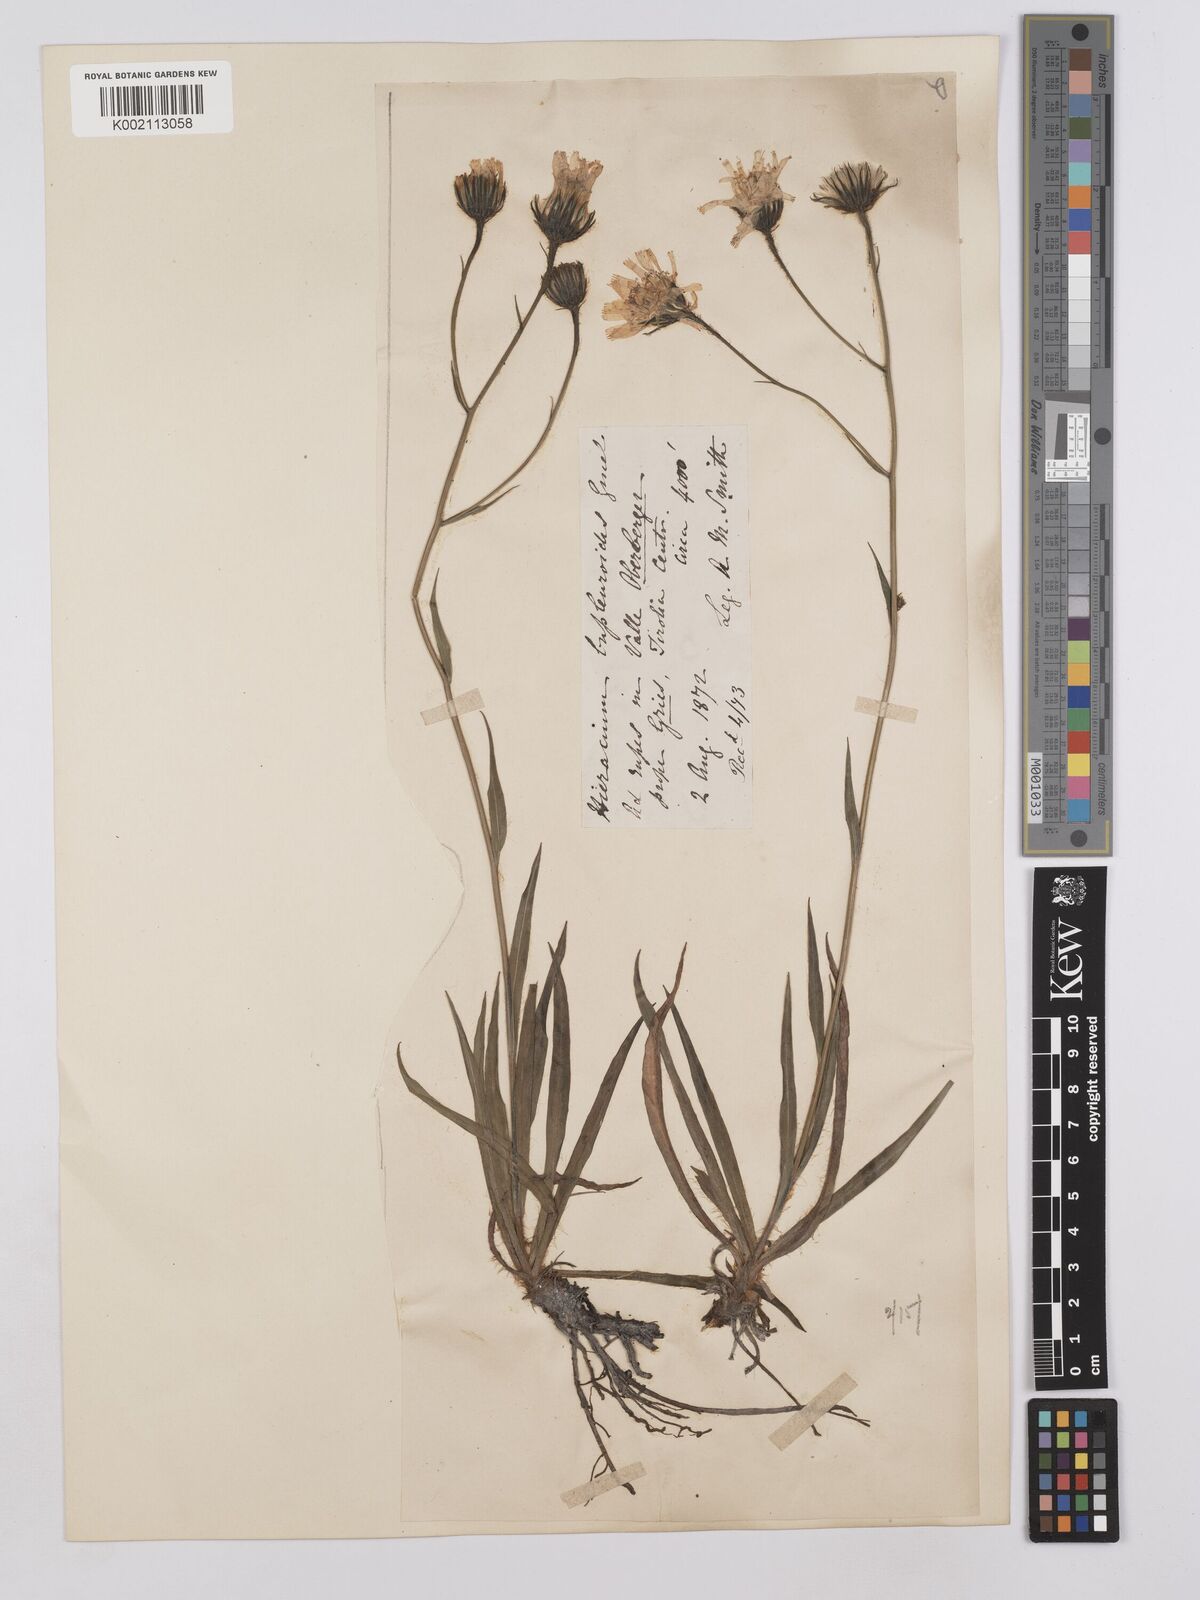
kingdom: Plantae
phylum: Tracheophyta
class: Magnoliopsida
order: Asterales
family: Asteraceae
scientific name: Asteraceae
